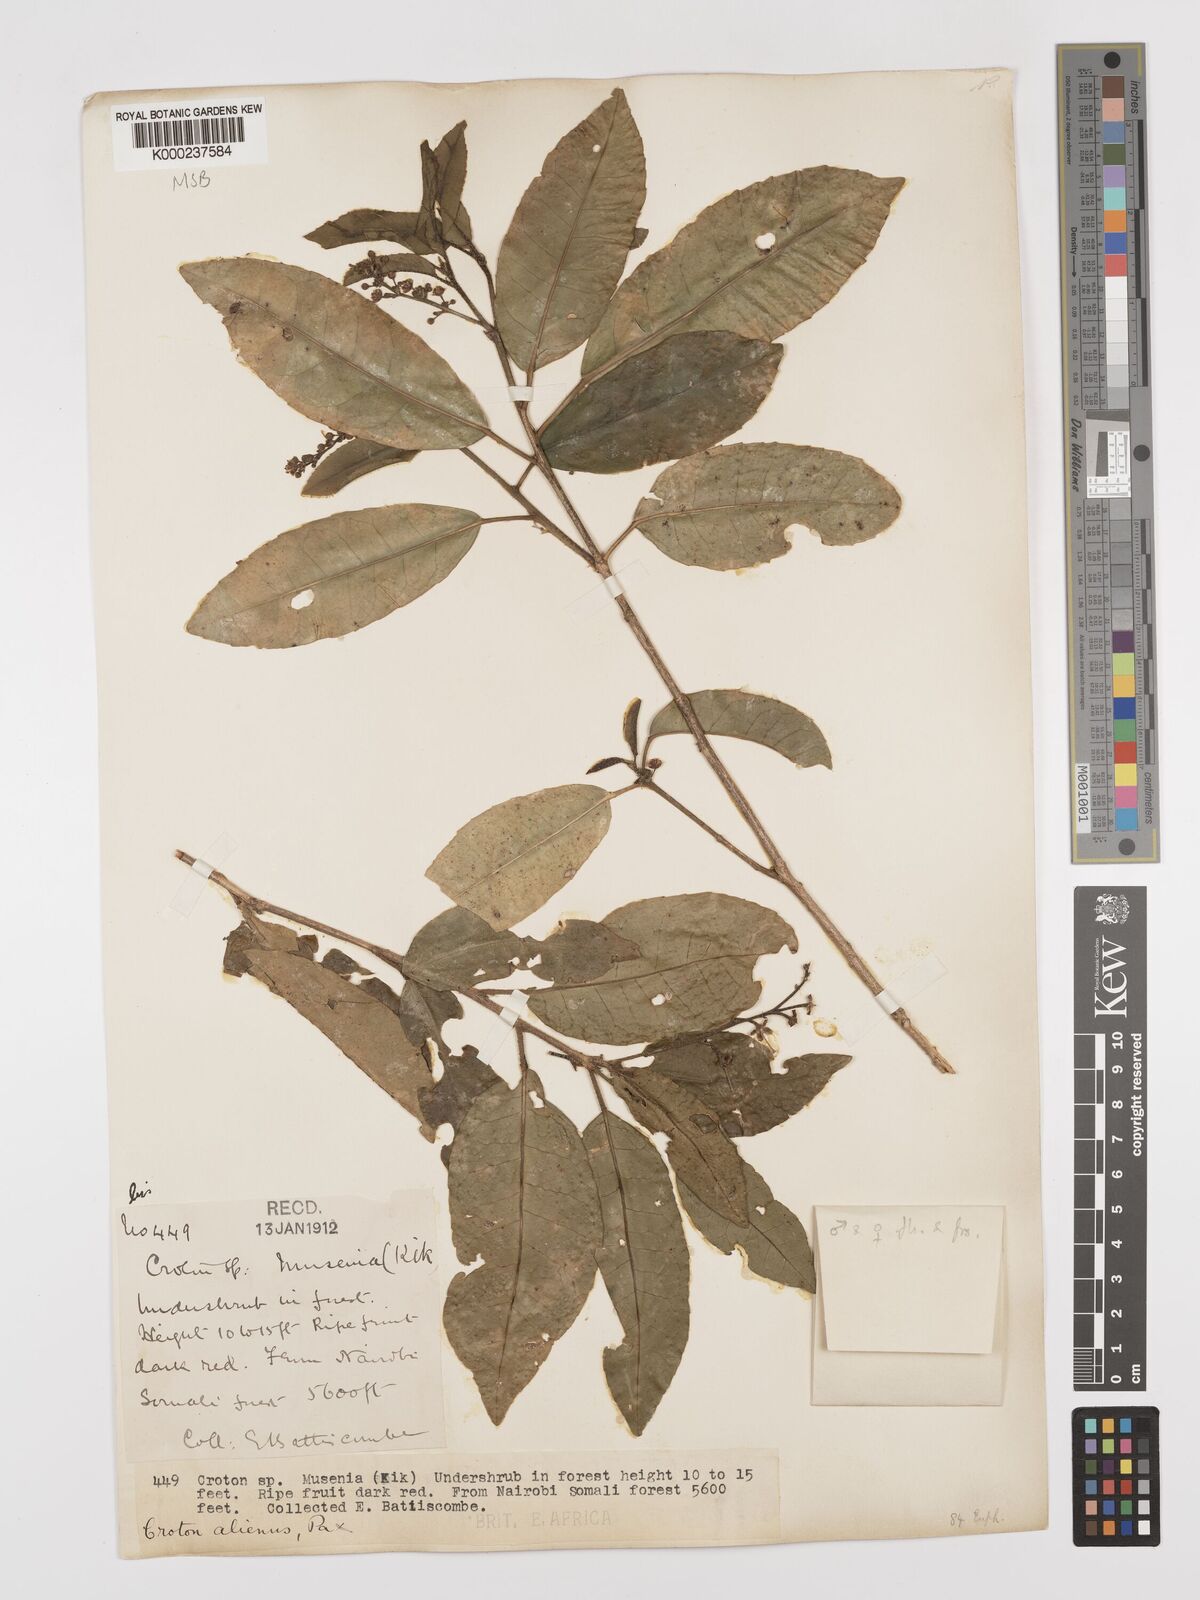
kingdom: Plantae
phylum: Tracheophyta
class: Magnoliopsida
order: Malpighiales
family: Euphorbiaceae
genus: Croton
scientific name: Croton alienus
